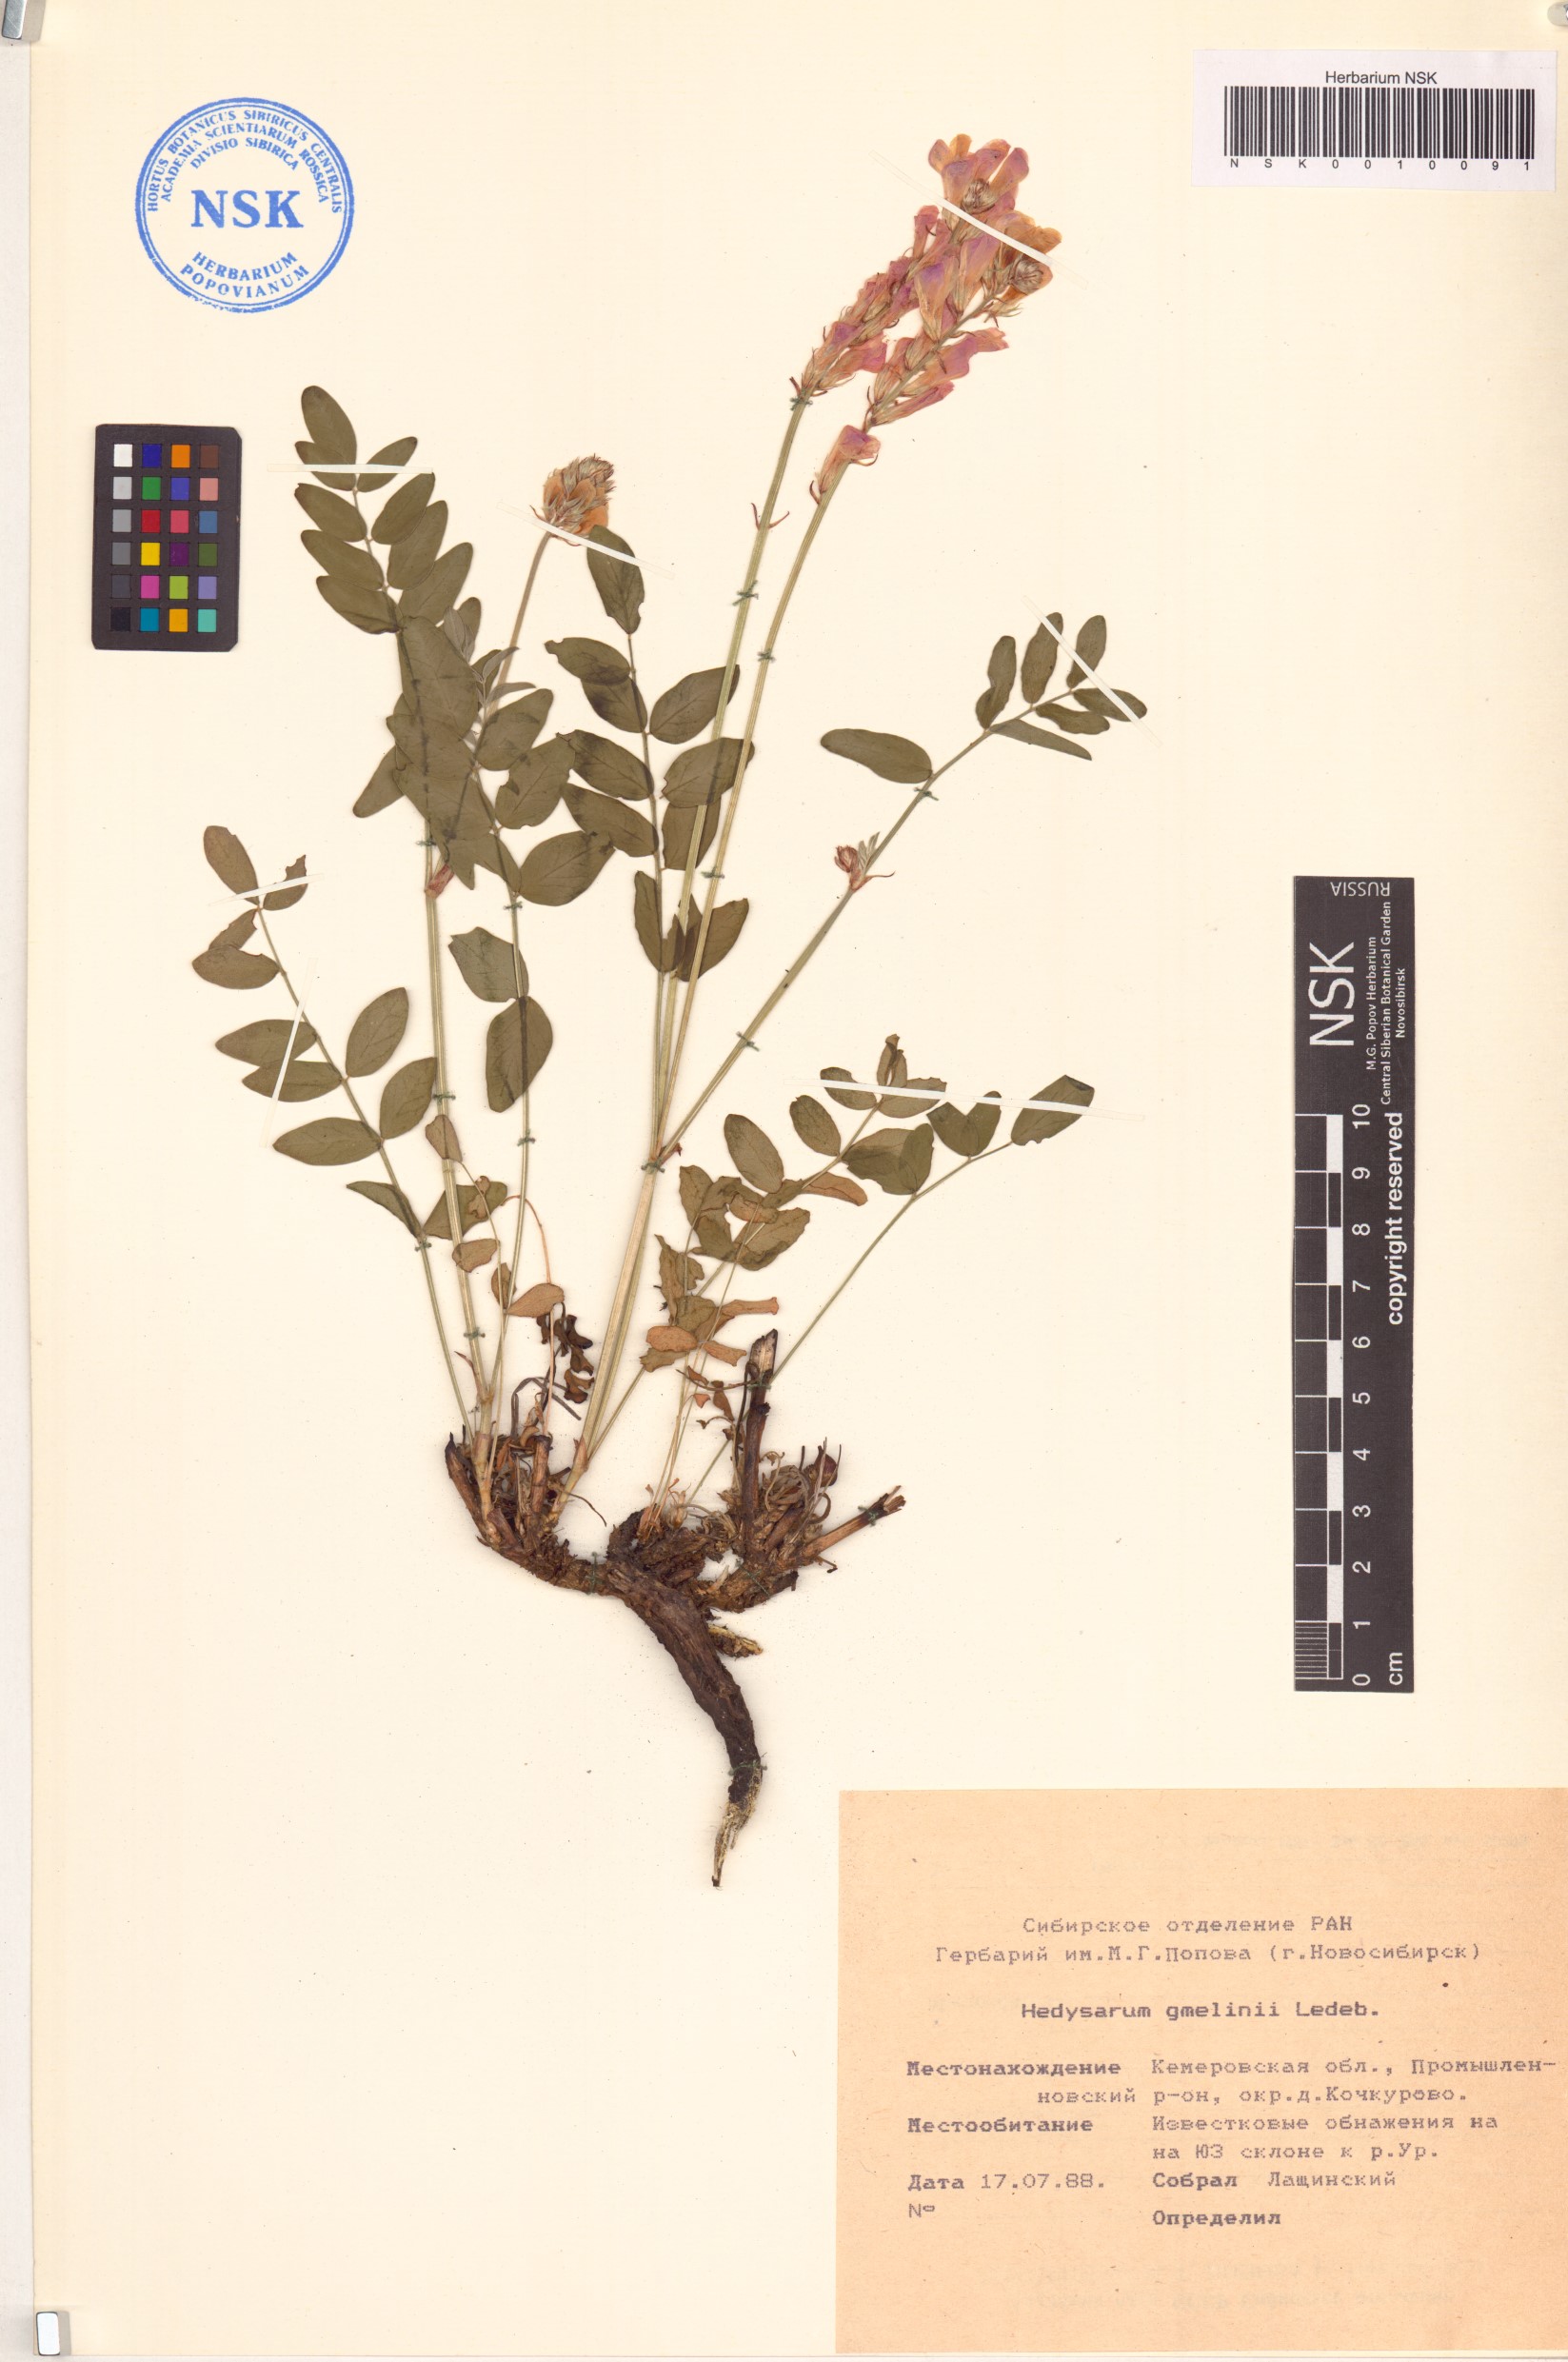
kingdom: Plantae
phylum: Tracheophyta
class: Magnoliopsida
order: Fabales
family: Fabaceae
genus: Hedysarum
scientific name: Hedysarum gmelinii
